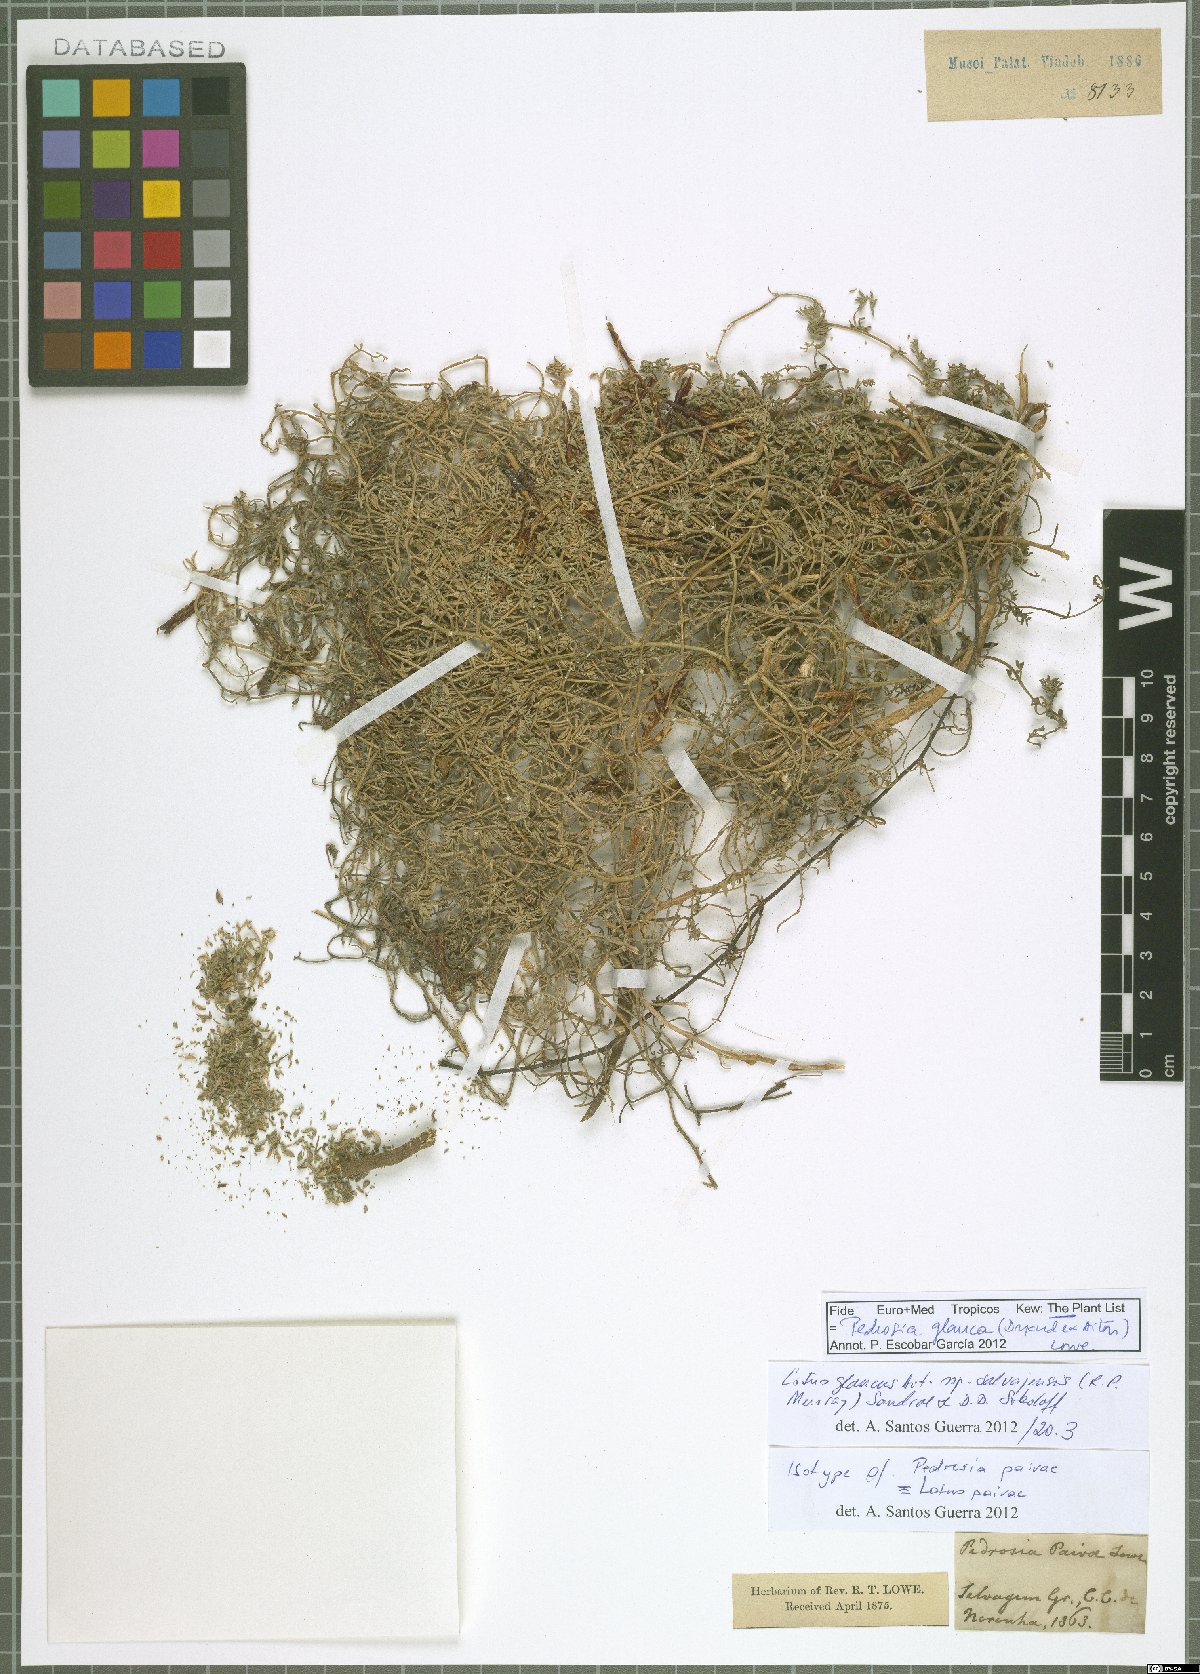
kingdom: Plantae
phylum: Tracheophyta
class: Magnoliopsida
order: Fabales
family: Fabaceae
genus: Lotus
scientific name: Lotus glaucus
